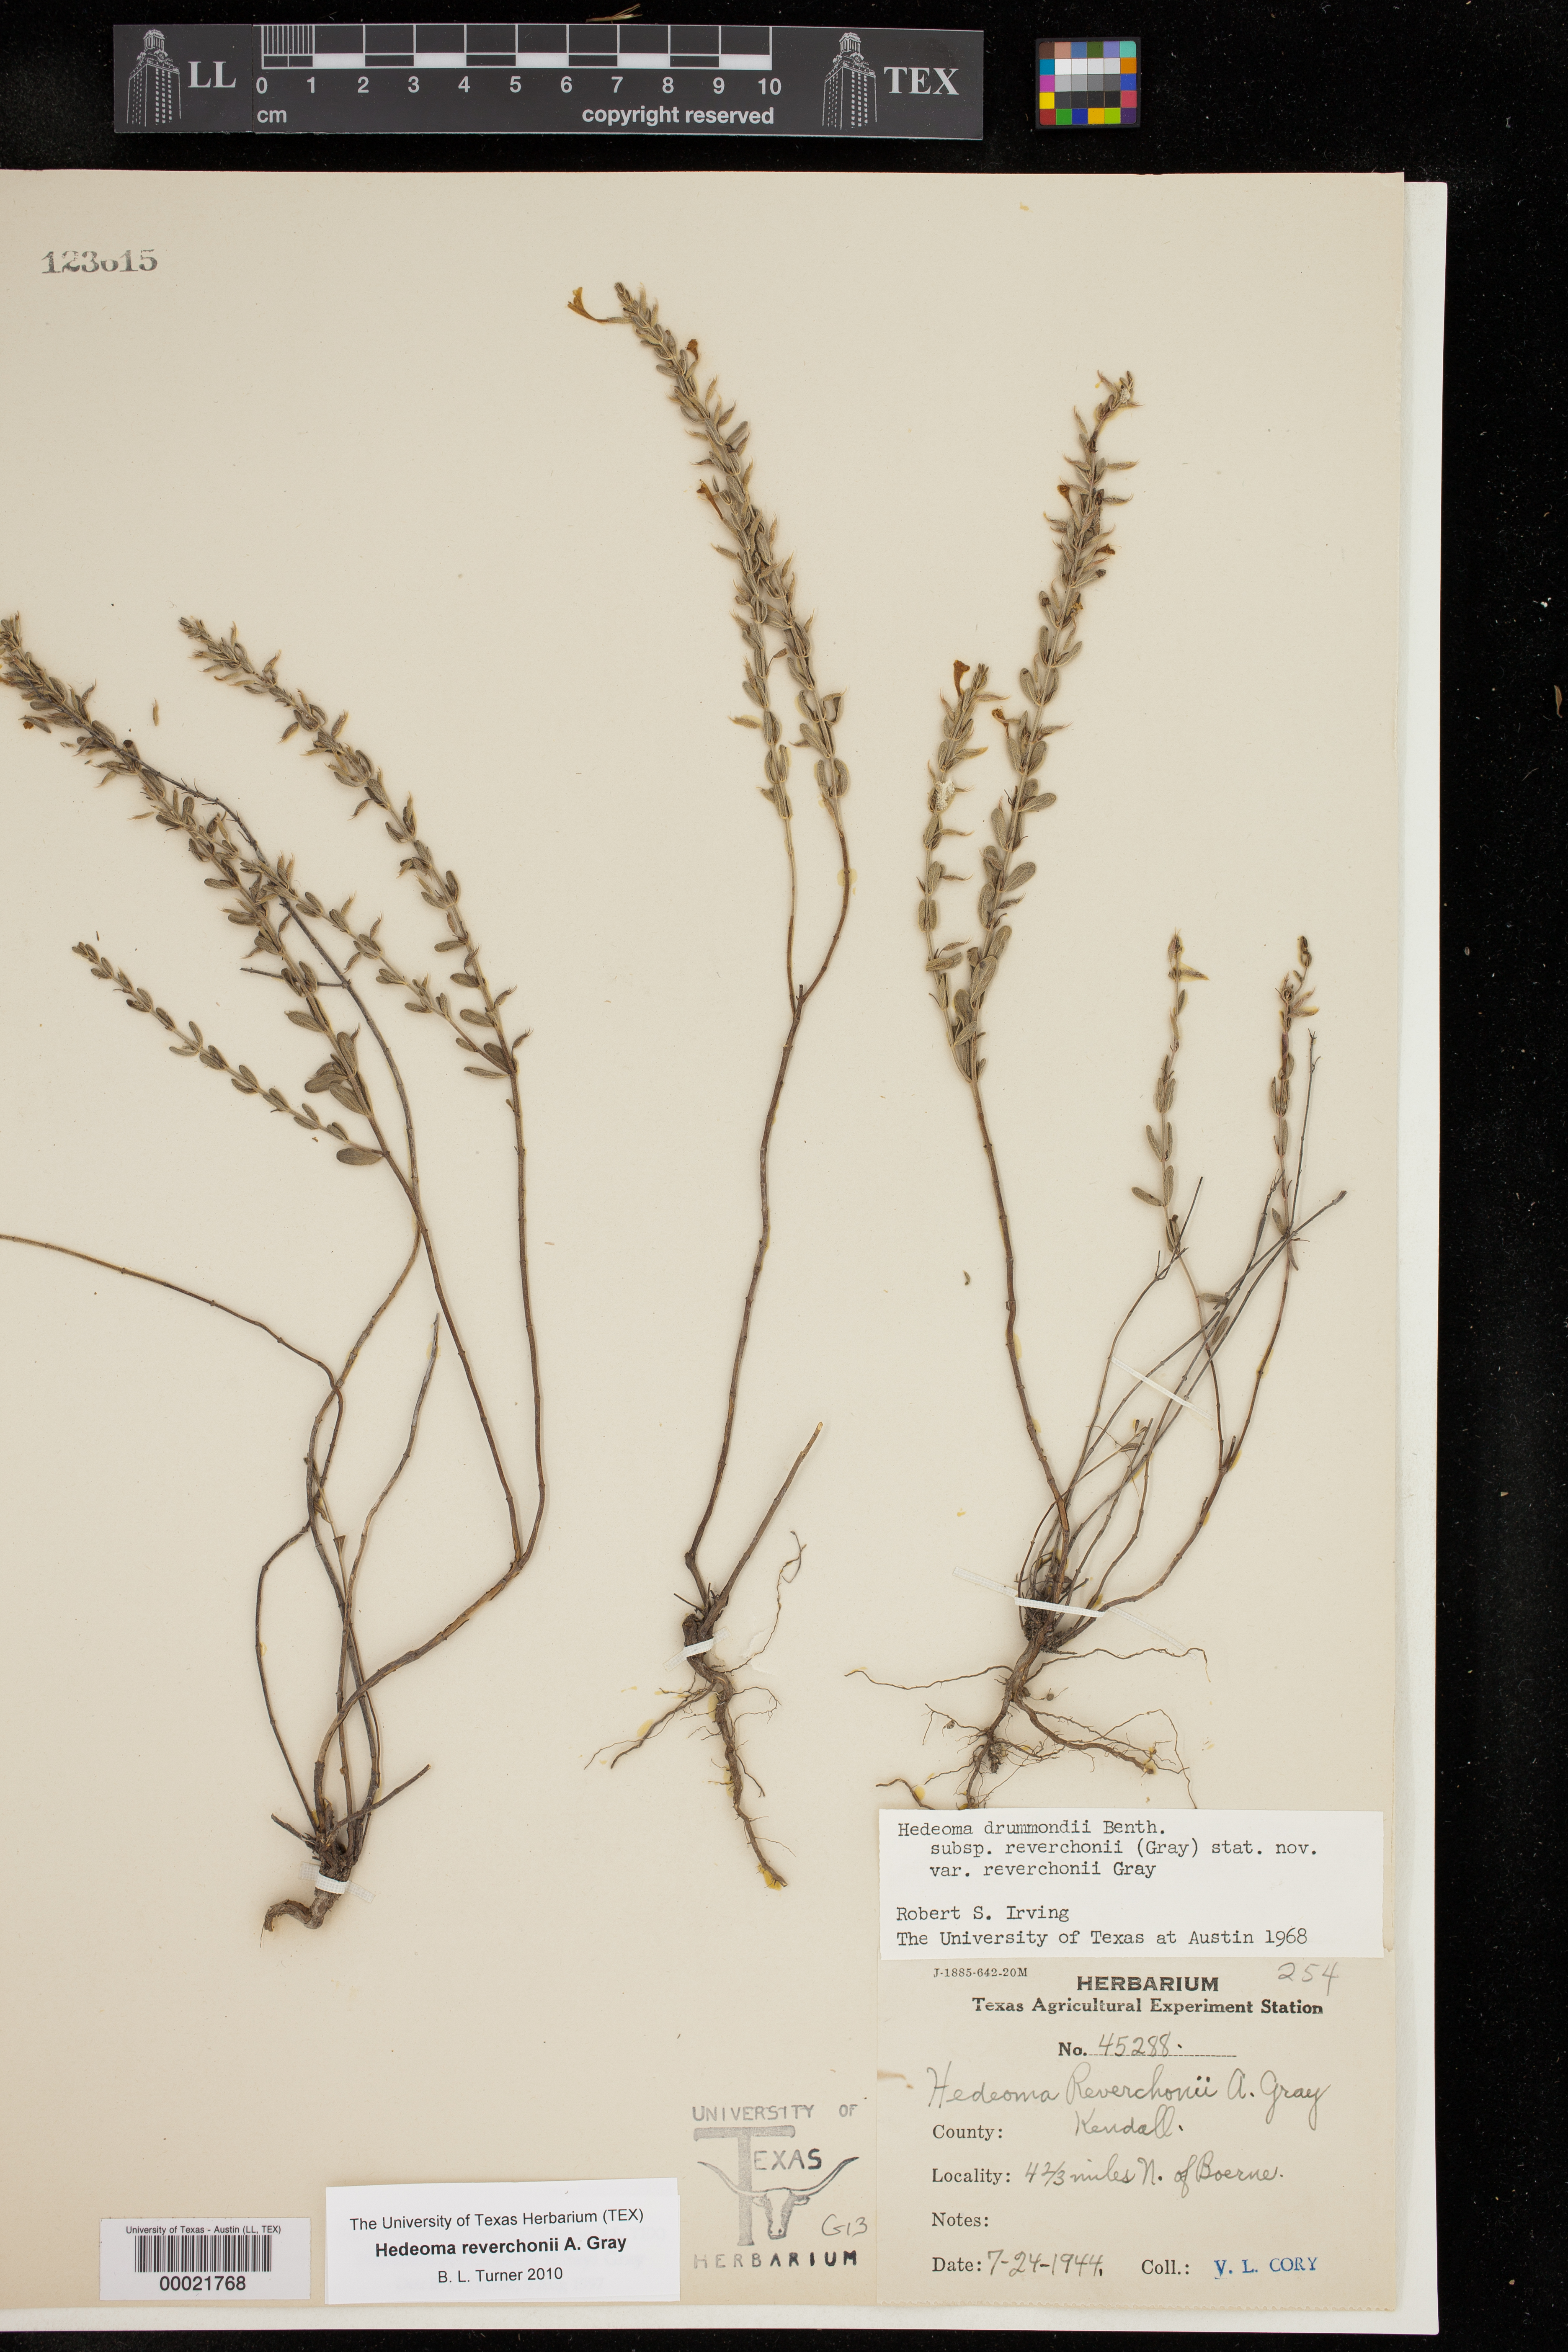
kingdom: Plantae
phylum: Tracheophyta
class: Magnoliopsida
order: Lamiales
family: Lamiaceae
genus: Hedeoma
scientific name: Hedeoma reverchonii
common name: Reverchon's false penny-royal
